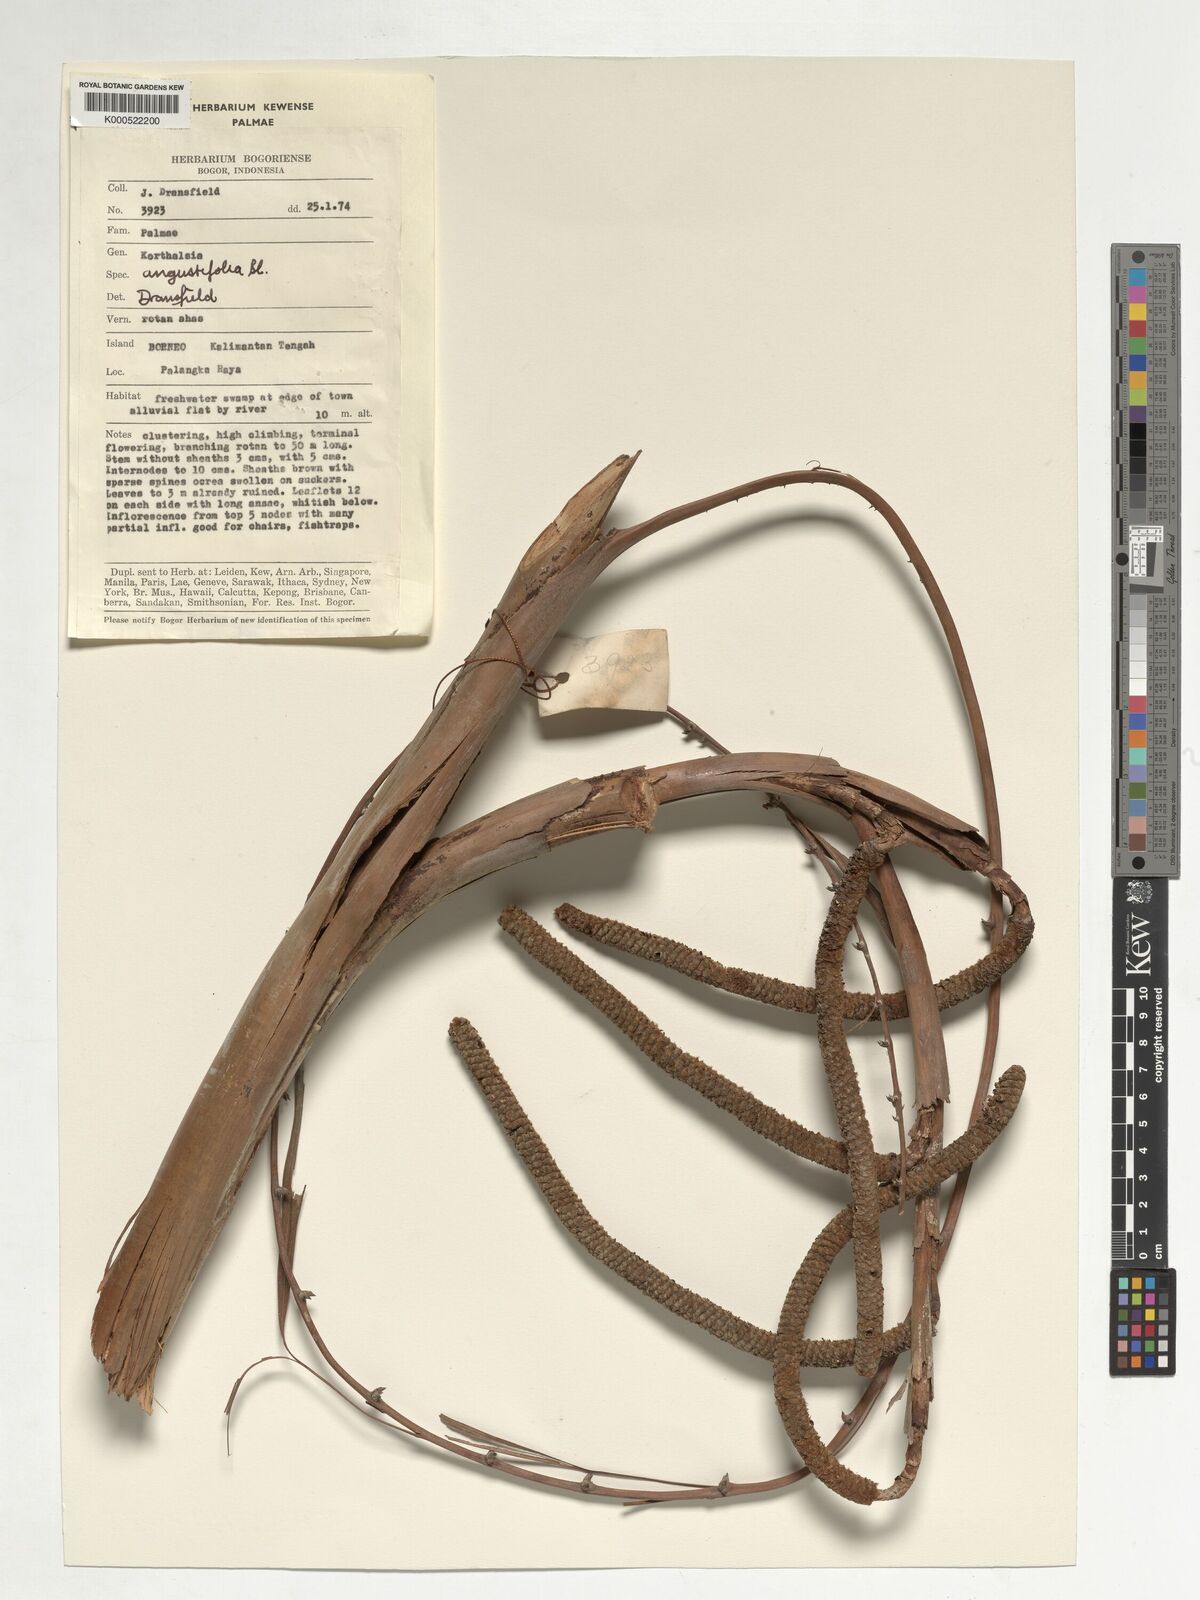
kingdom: Plantae
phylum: Tracheophyta
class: Liliopsida
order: Arecales
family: Arecaceae
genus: Korthalsia
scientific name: Korthalsia angustifolia
